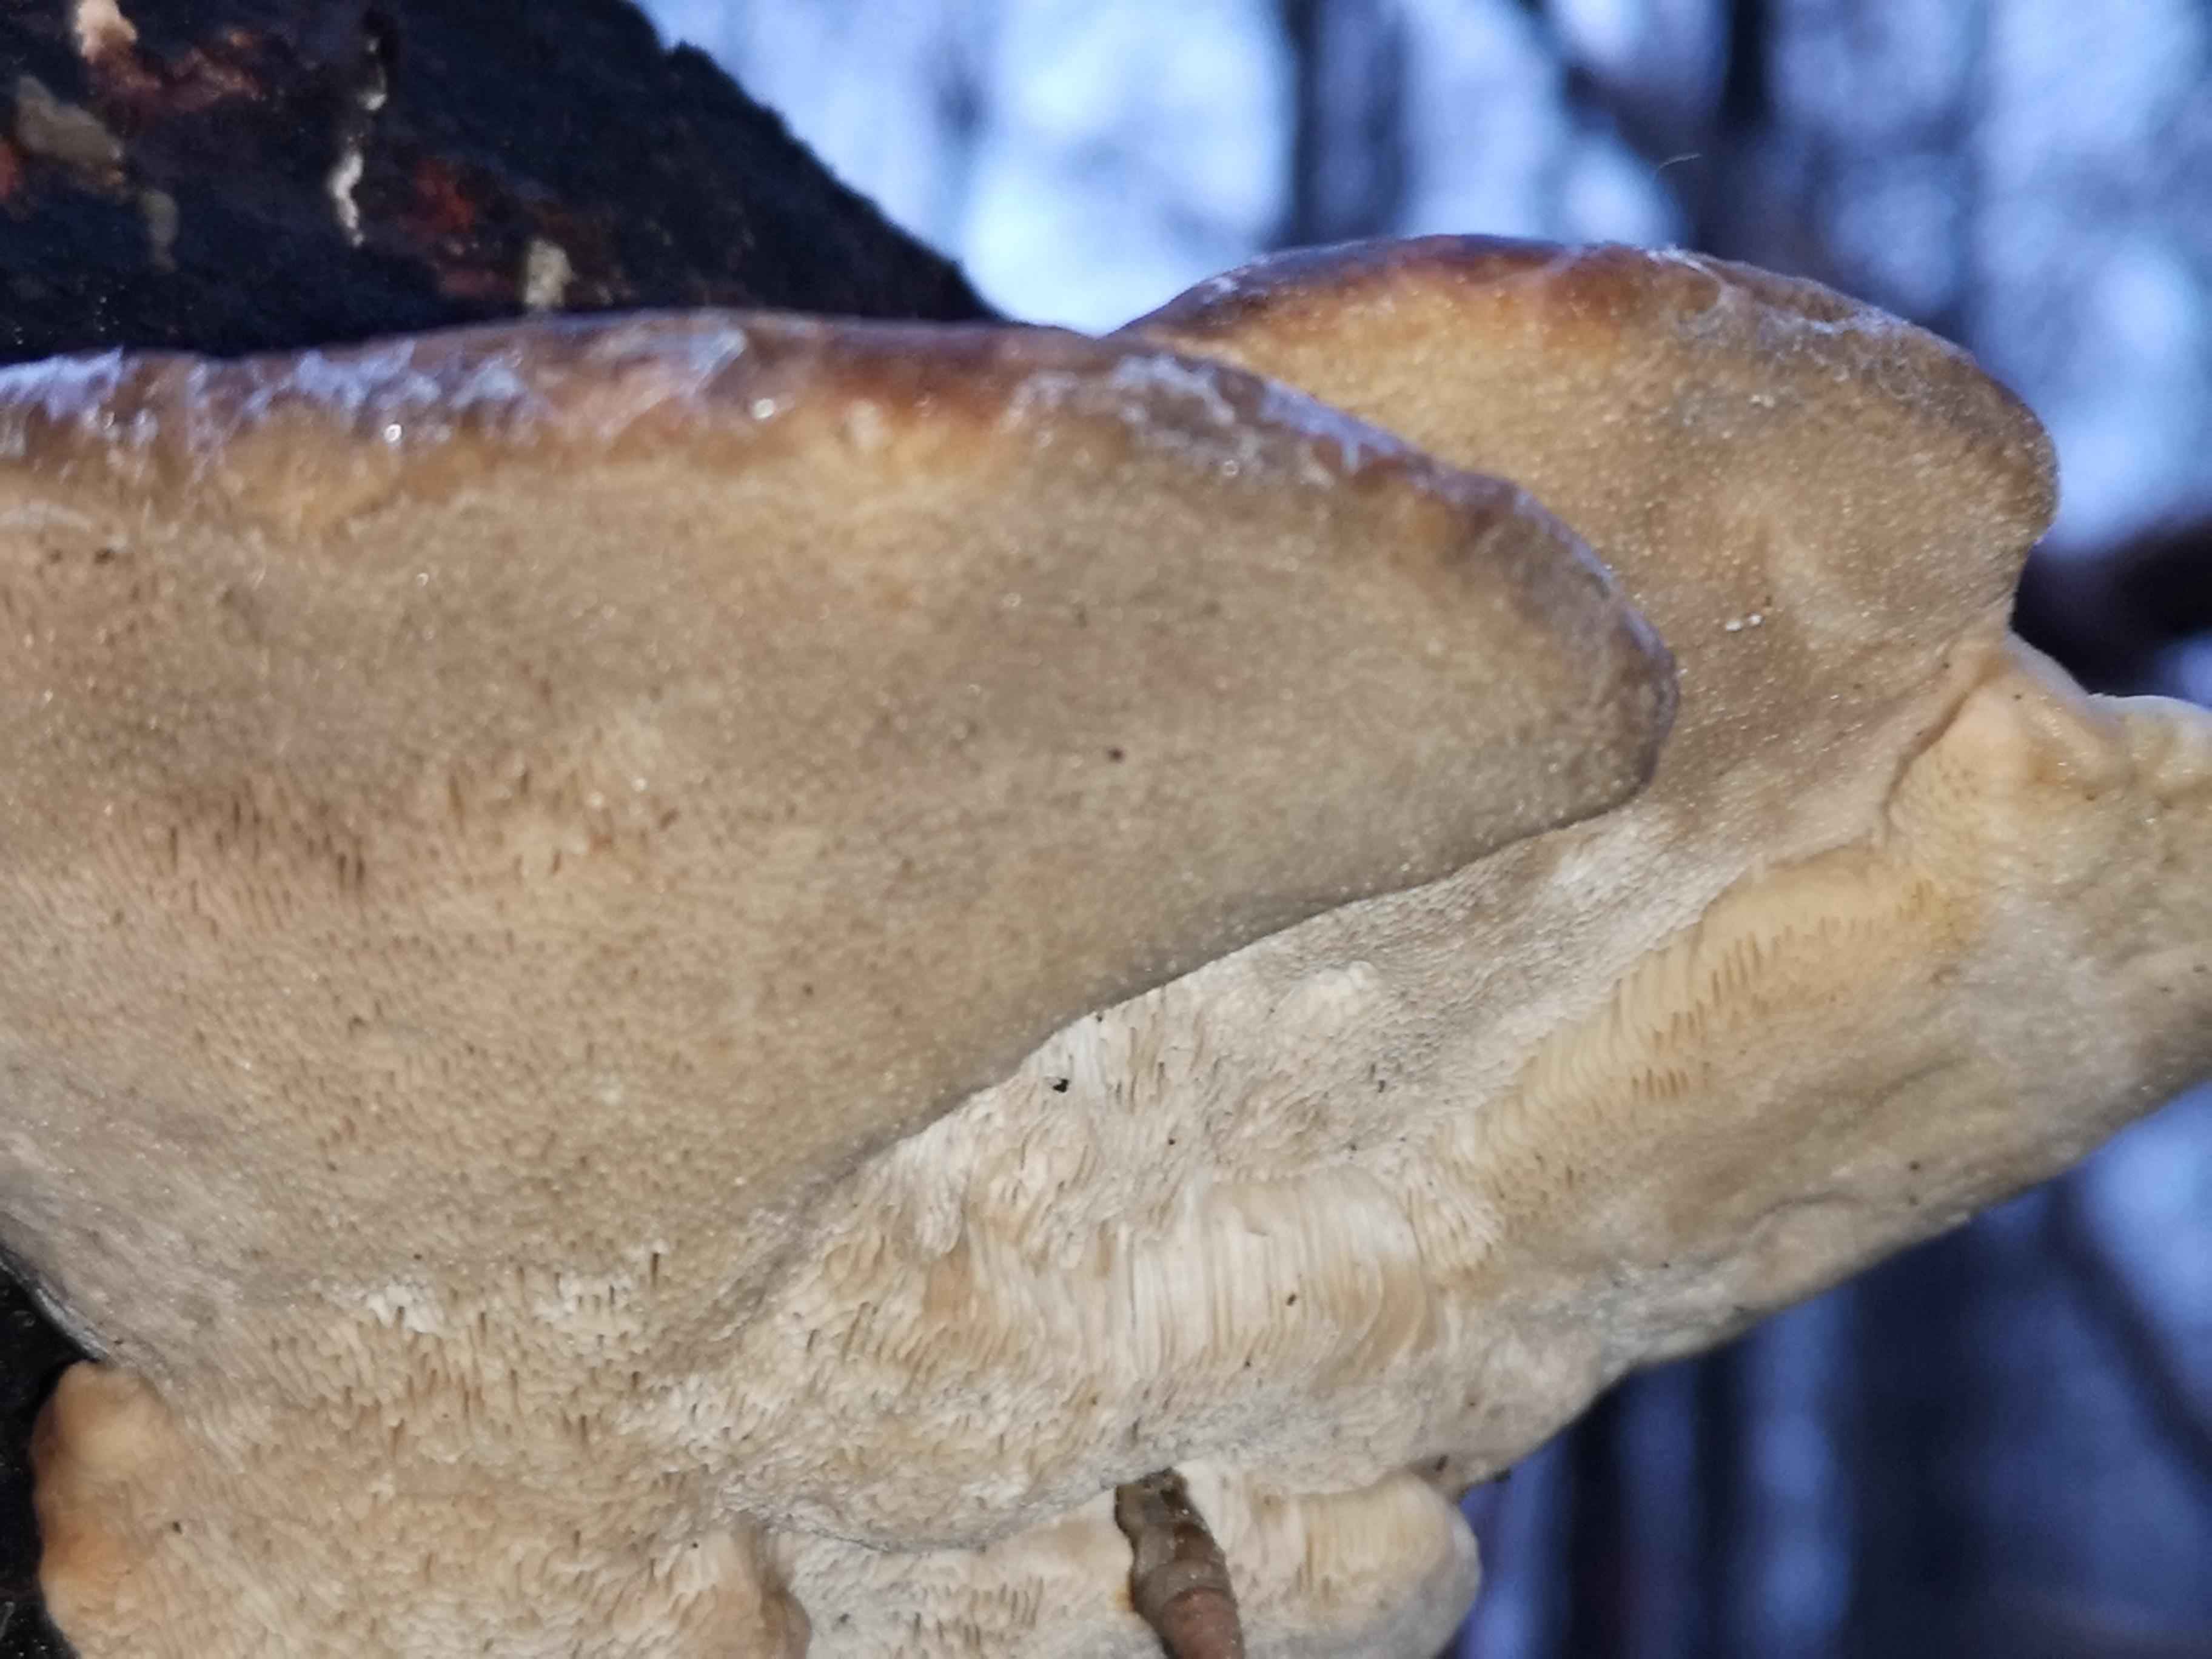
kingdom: Fungi
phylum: Basidiomycota
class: Agaricomycetes
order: Polyporales
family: Polyporaceae
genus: Trametes
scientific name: Trametes hirsuta
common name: håret læderporesvamp
